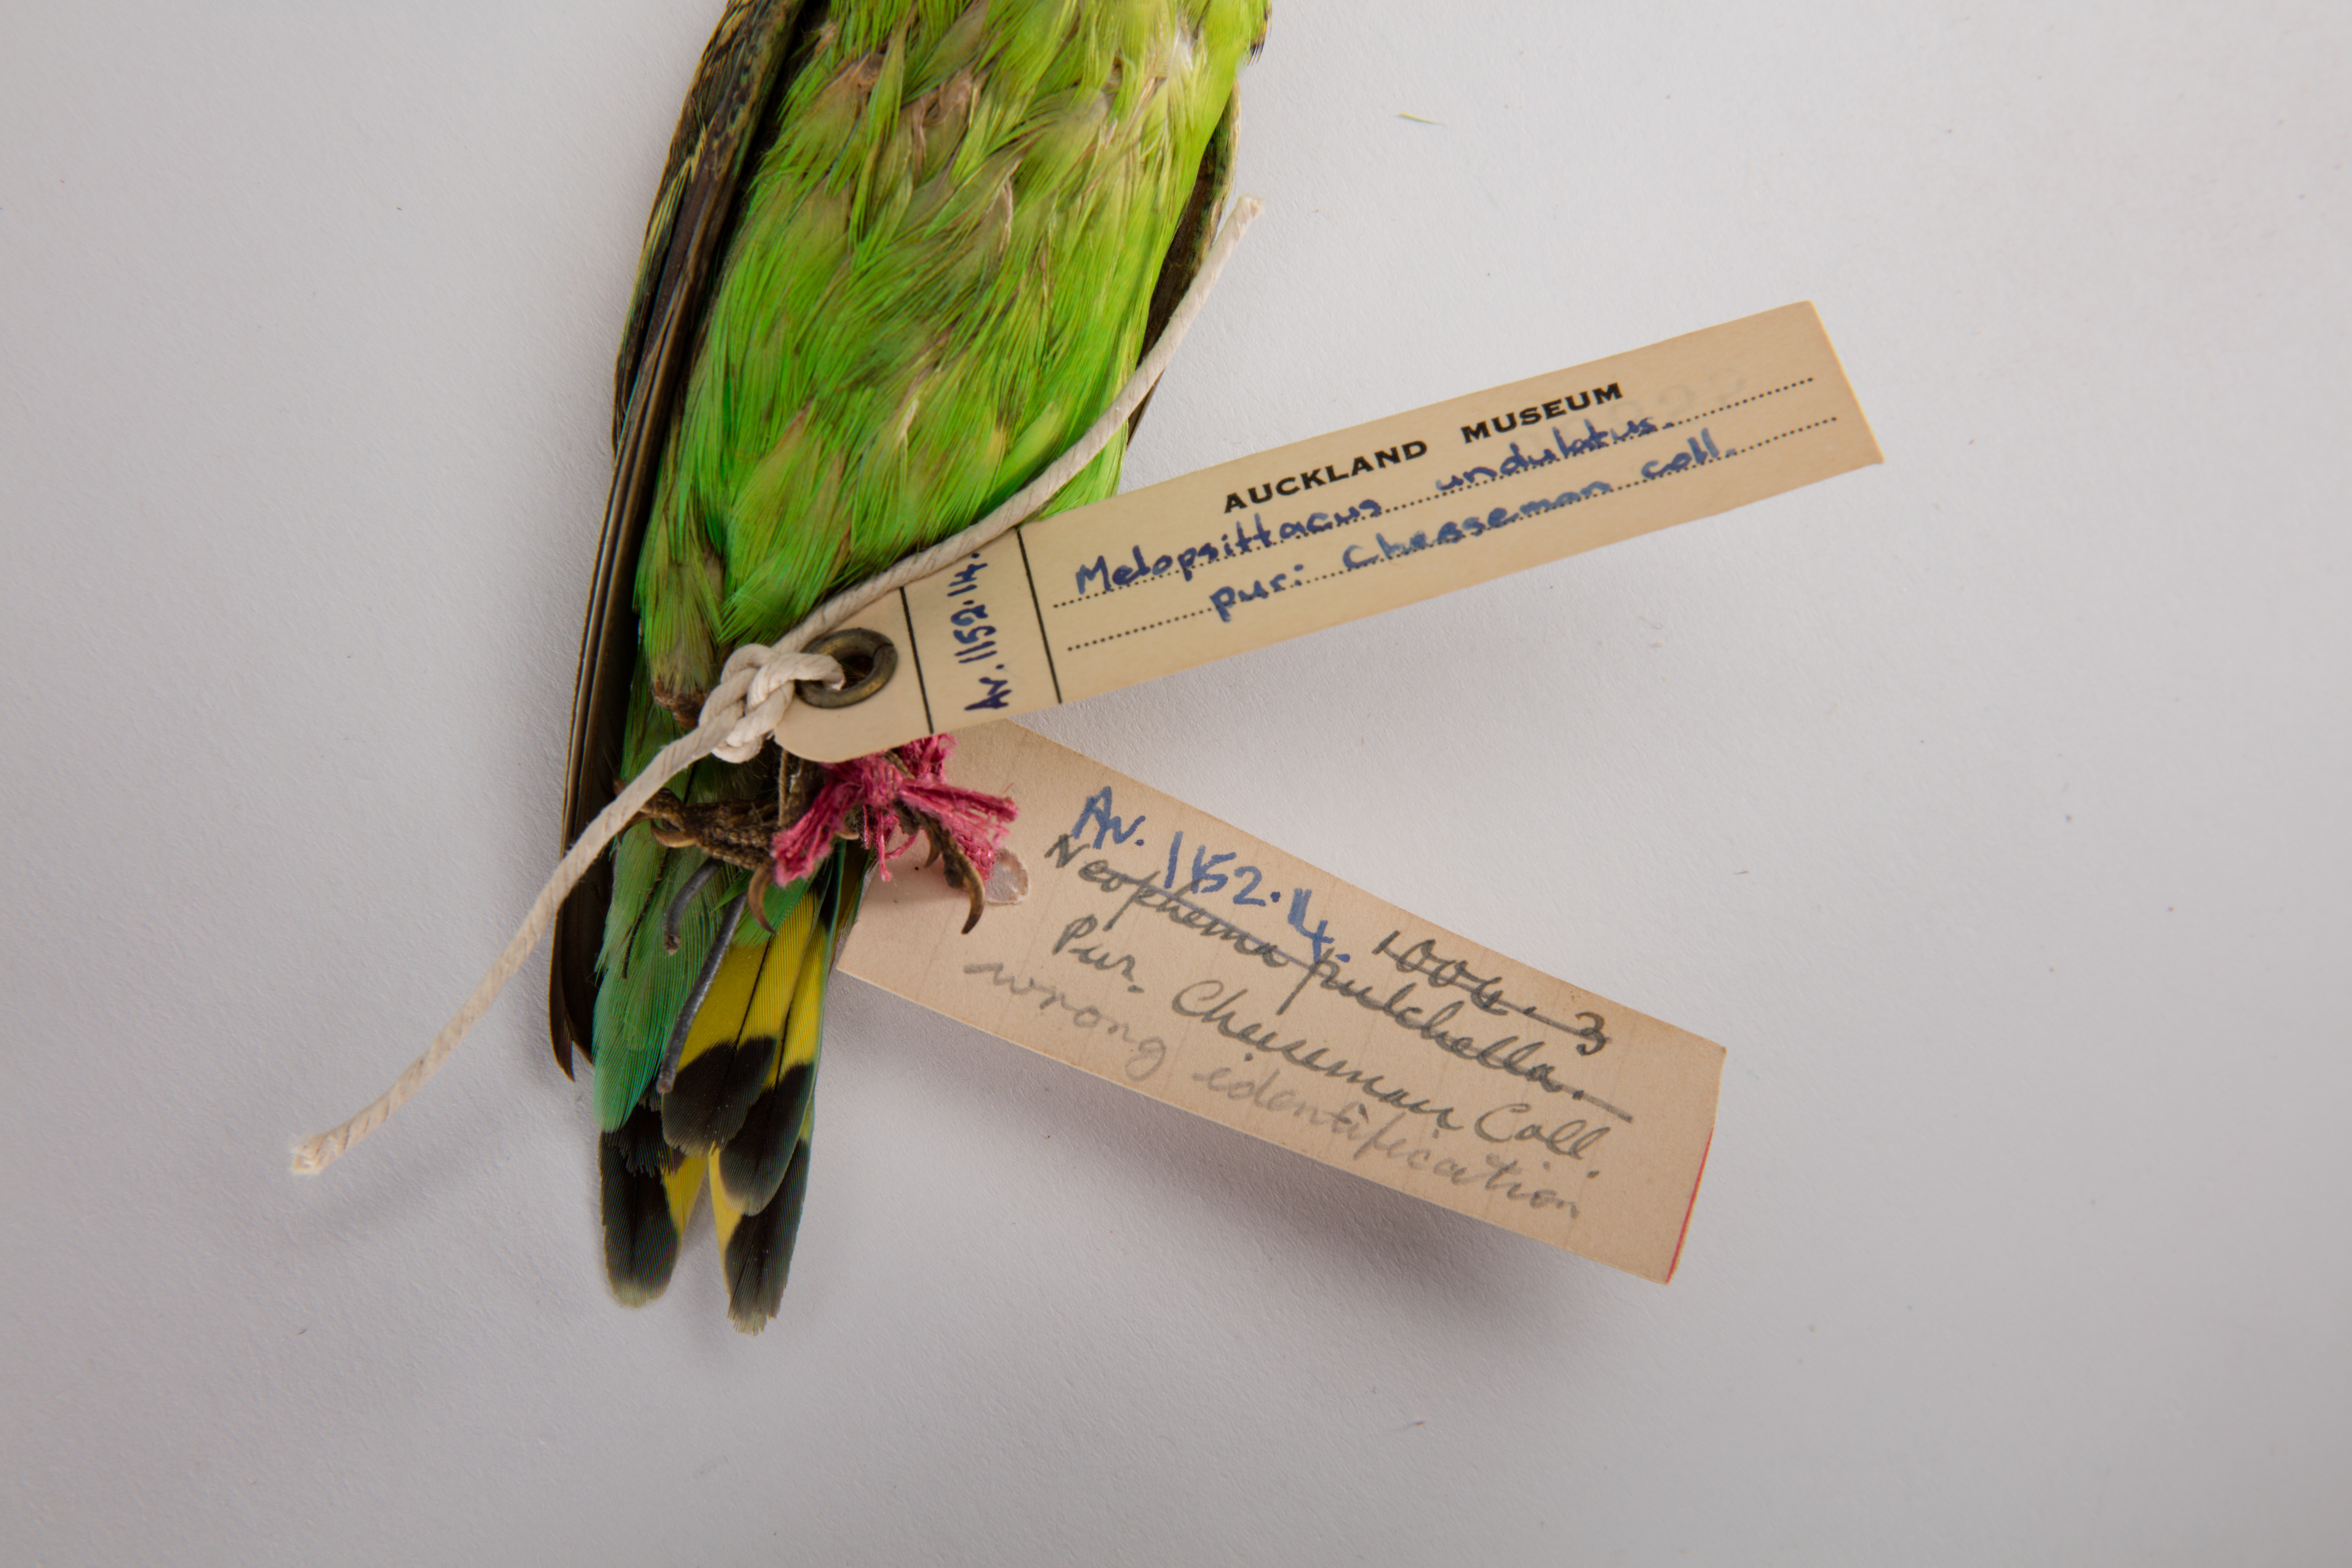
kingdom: Animalia
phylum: Chordata
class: Aves
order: Psittaciformes
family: Psittacidae
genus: Melopsittacus
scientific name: Melopsittacus undulatus
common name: Budgerigar
